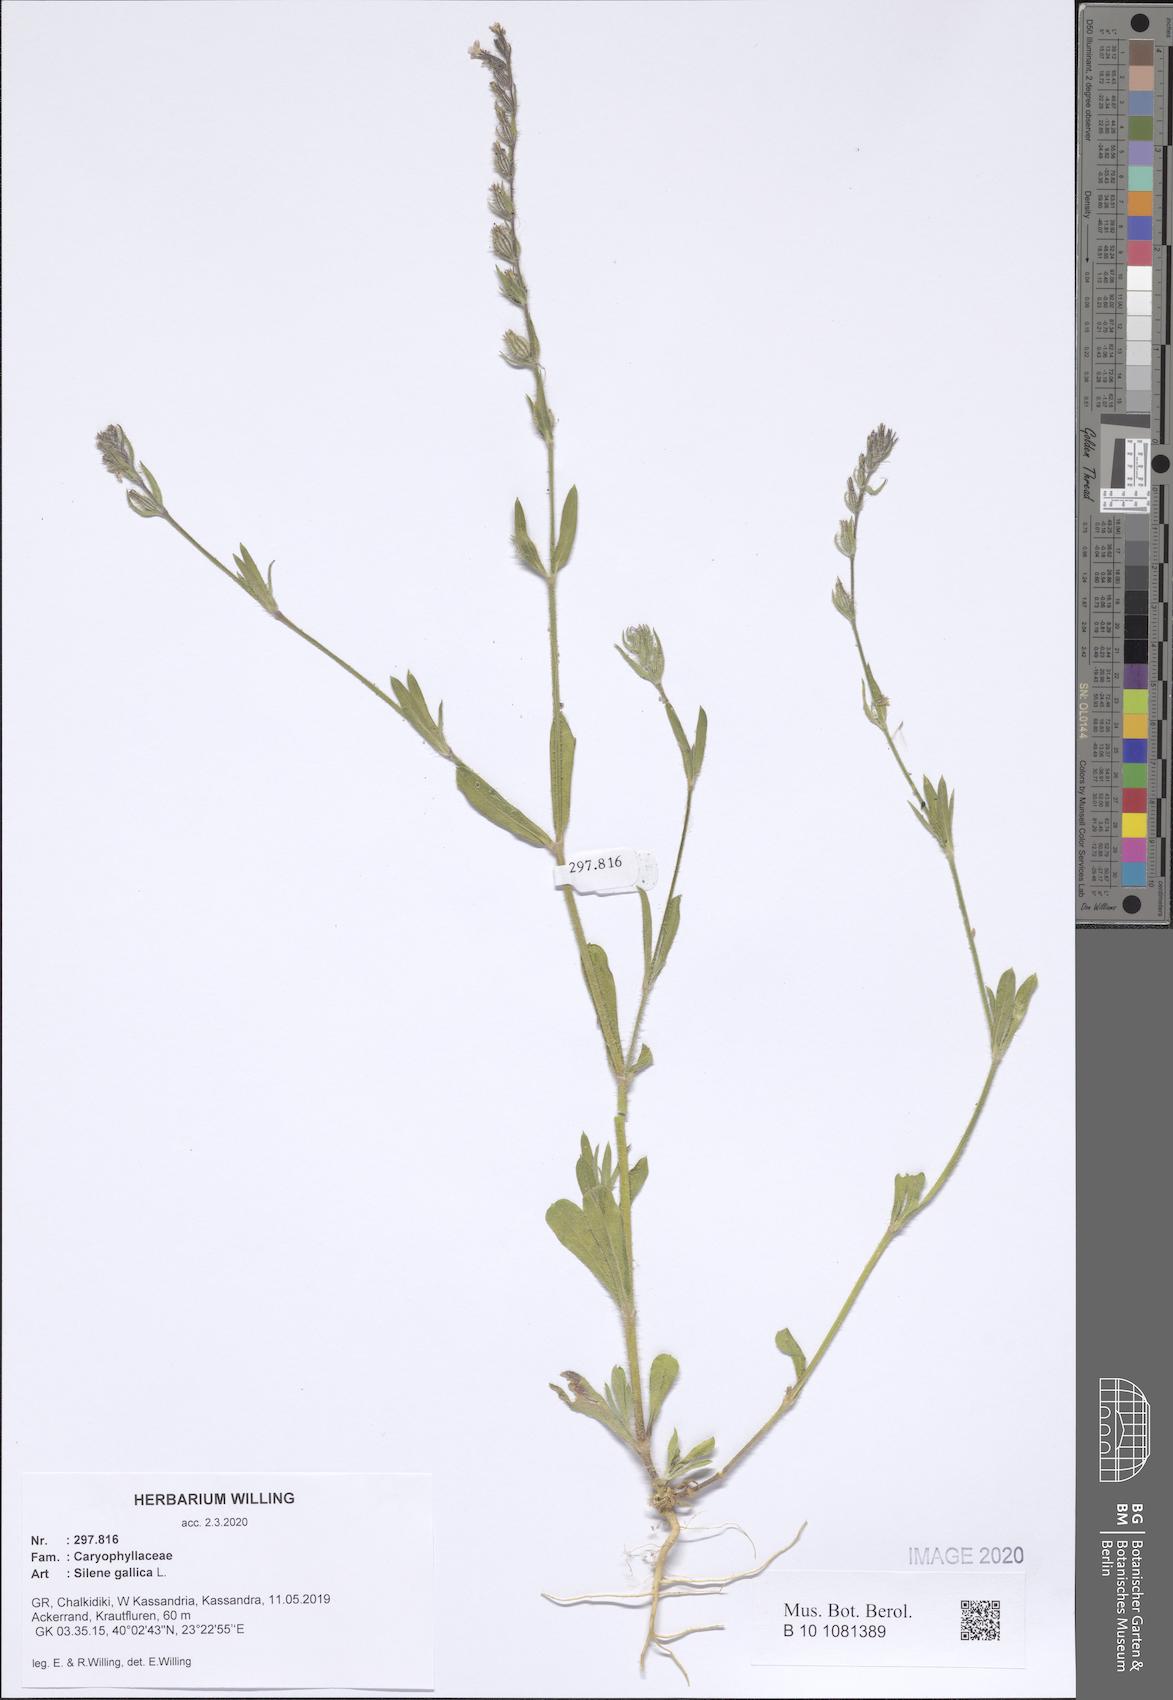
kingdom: Plantae
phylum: Tracheophyta
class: Magnoliopsida
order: Caryophyllales
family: Caryophyllaceae
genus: Silene
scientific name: Silene gallica
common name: Small-flowered catchfly
